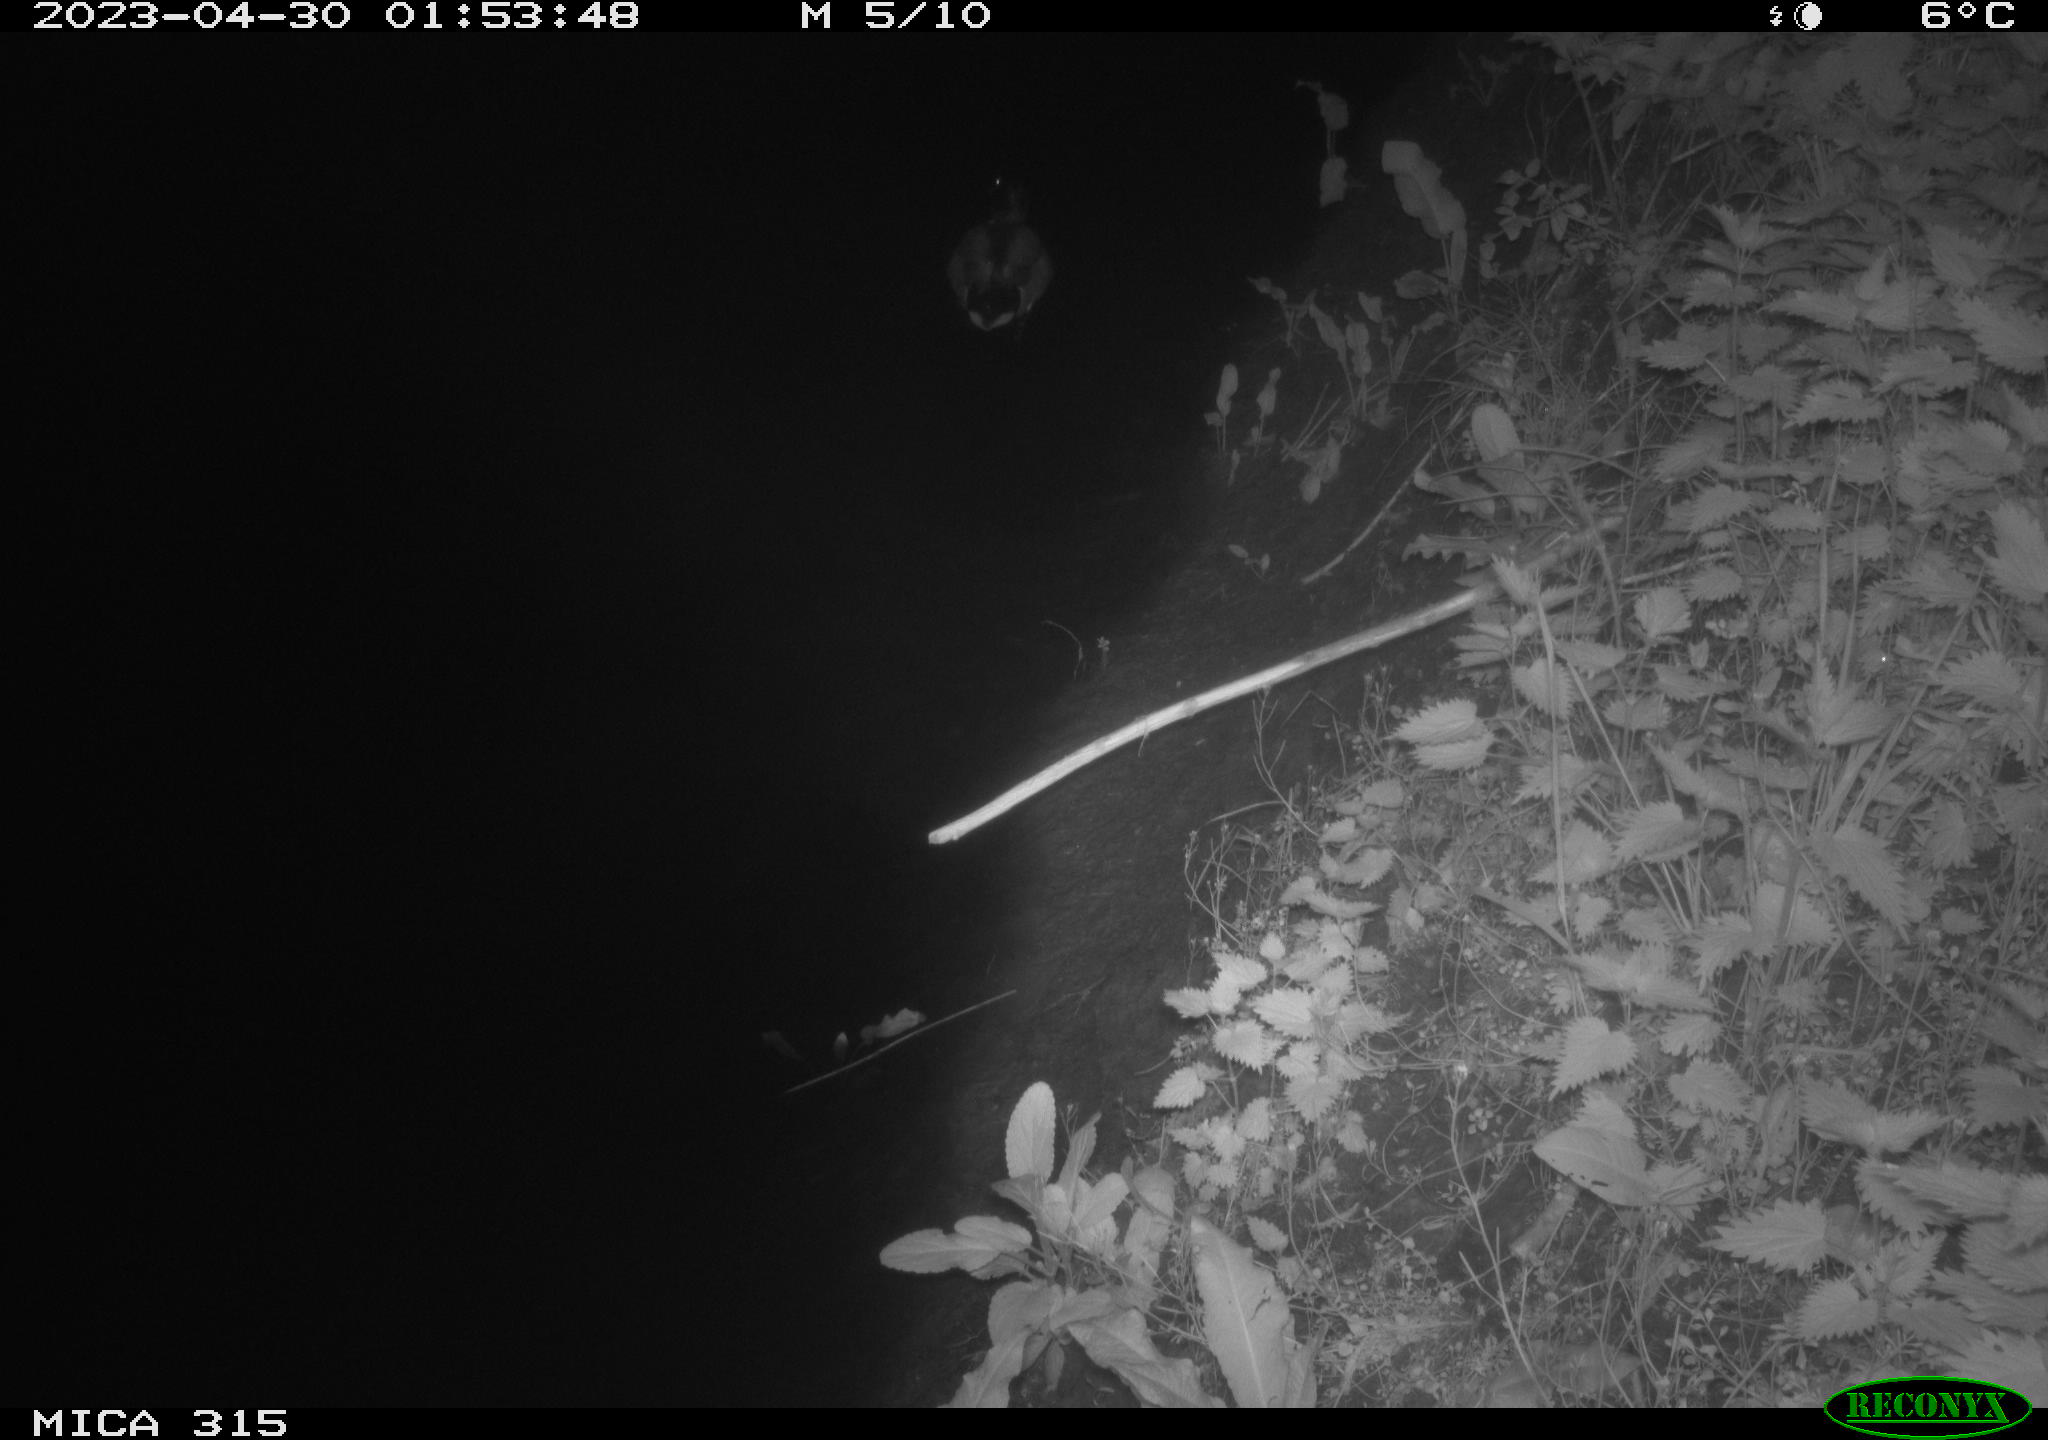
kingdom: Animalia
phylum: Chordata
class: Aves
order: Anseriformes
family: Anatidae
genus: Anas
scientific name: Anas
